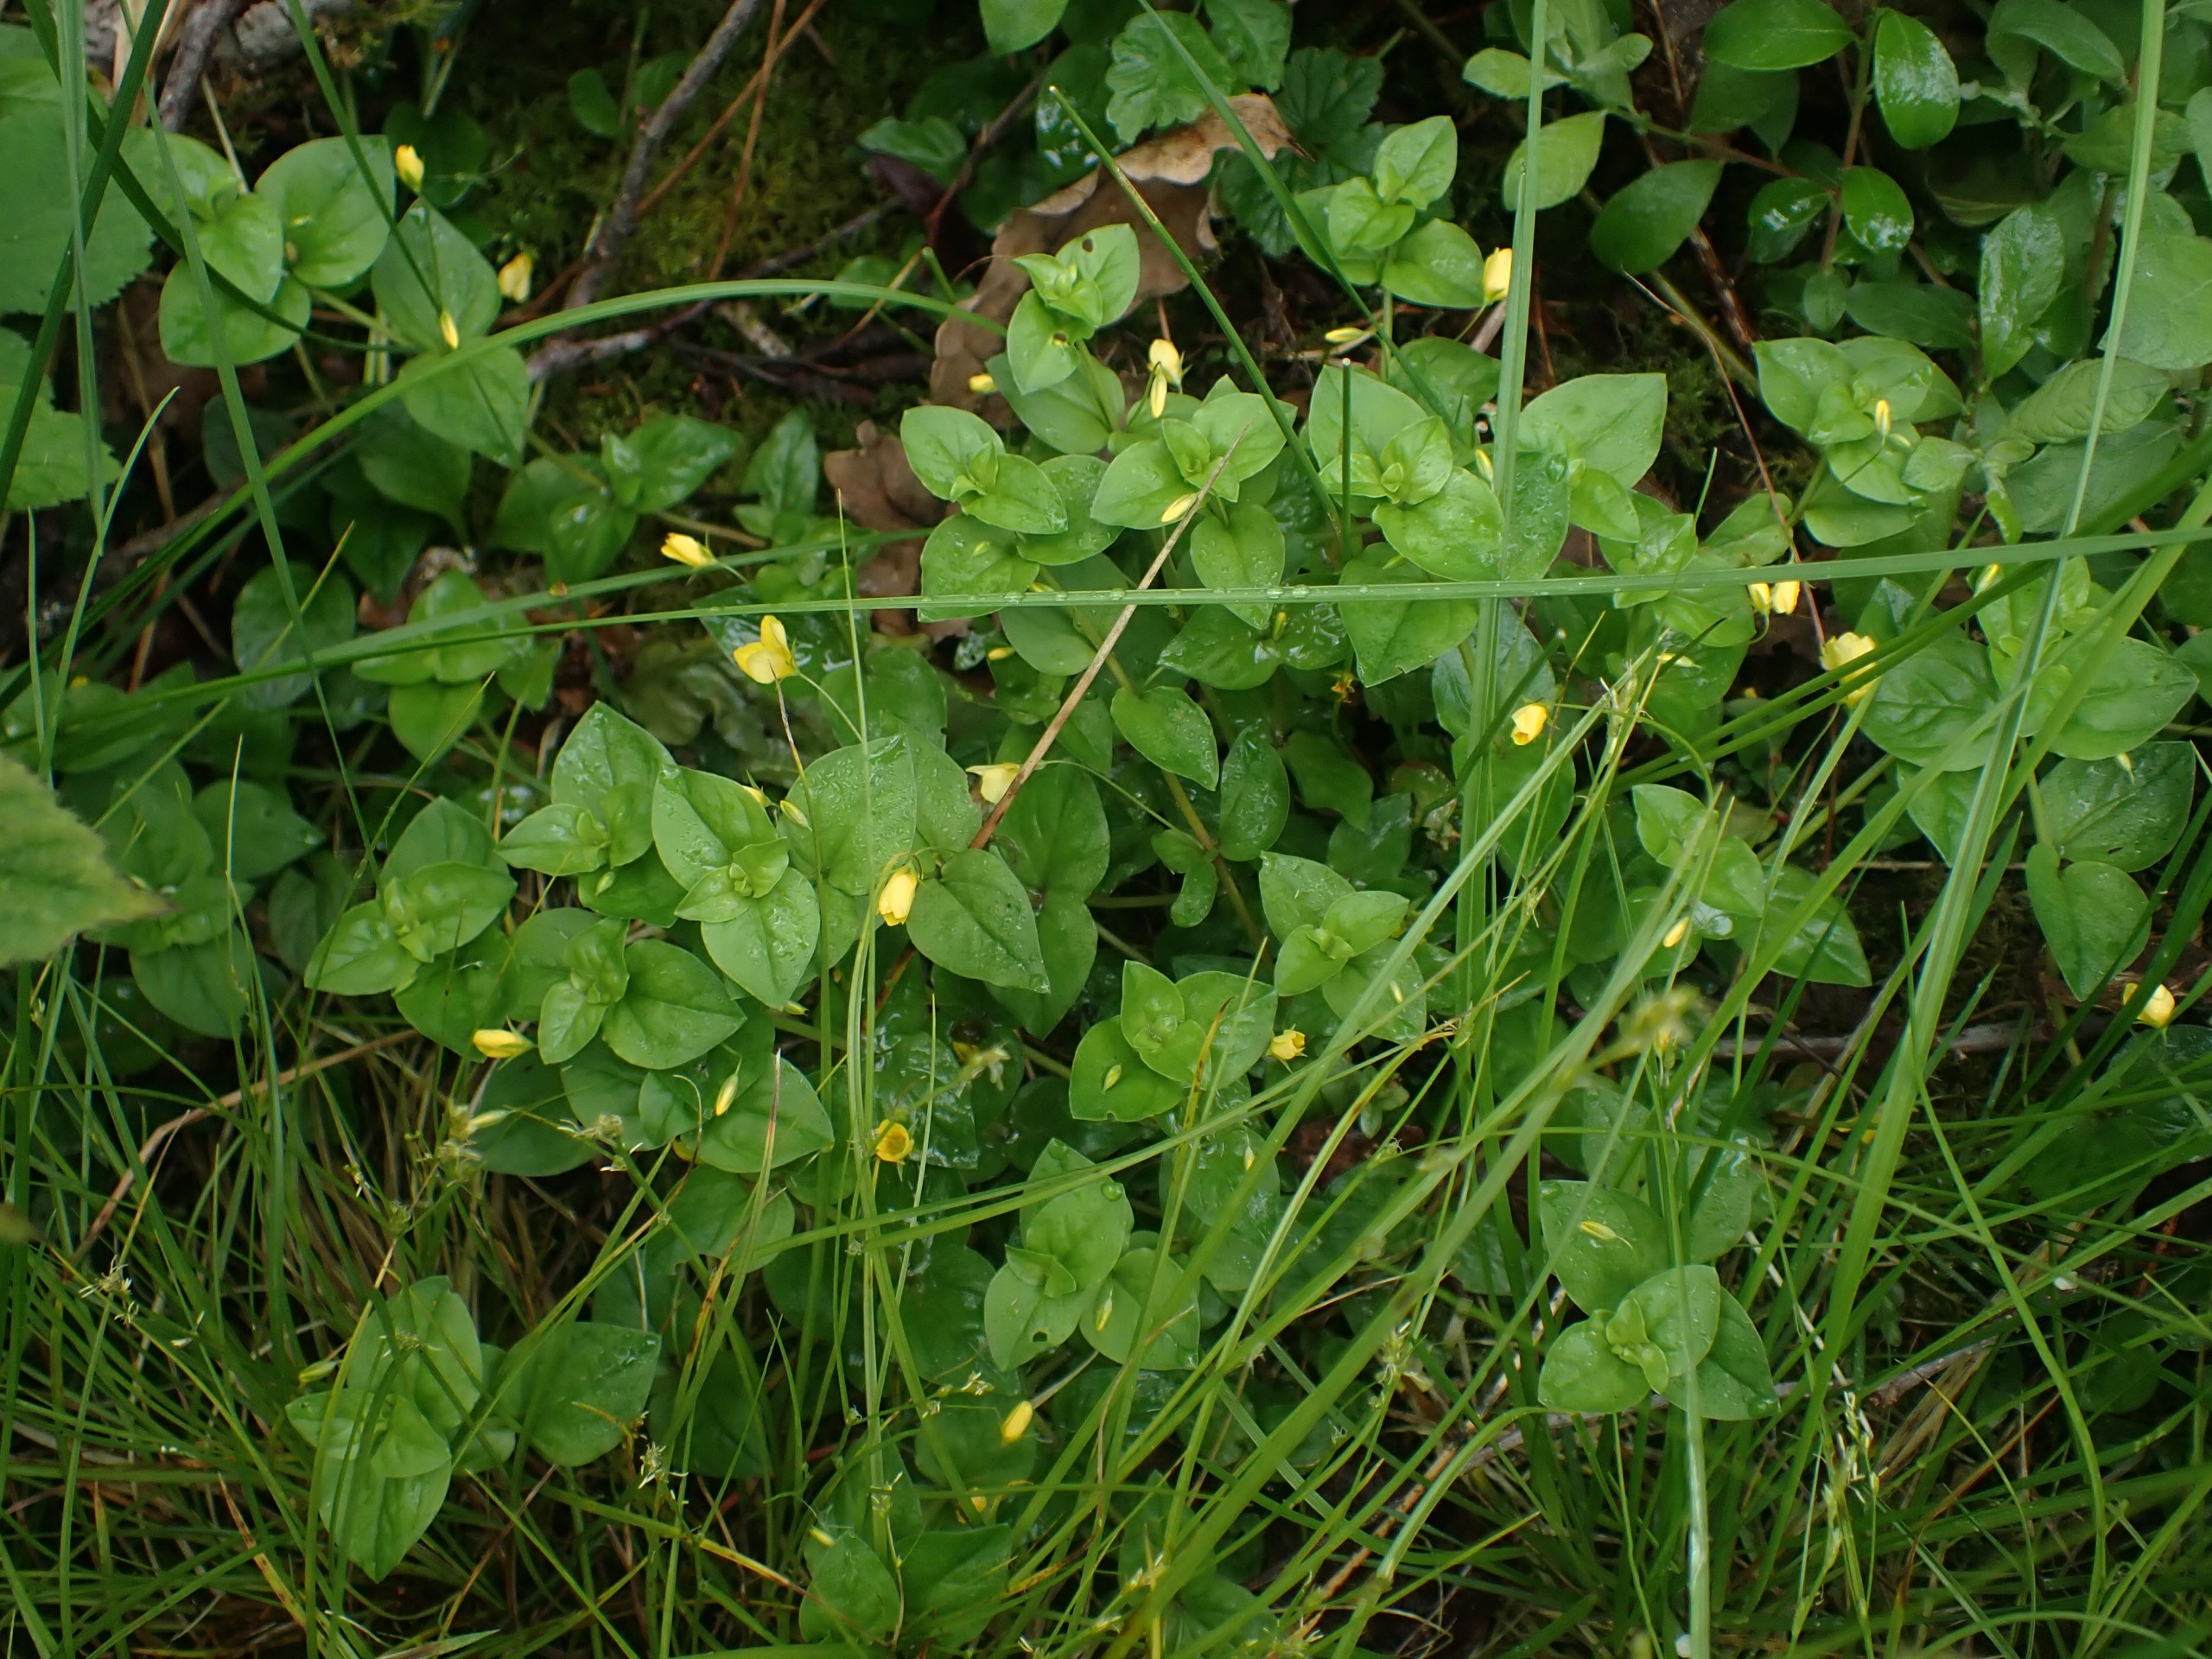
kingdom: Plantae
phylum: Tracheophyta
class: Magnoliopsida
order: Ericales
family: Primulaceae
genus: Lysimachia
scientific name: Lysimachia nemorum
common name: Lund-fredløs
